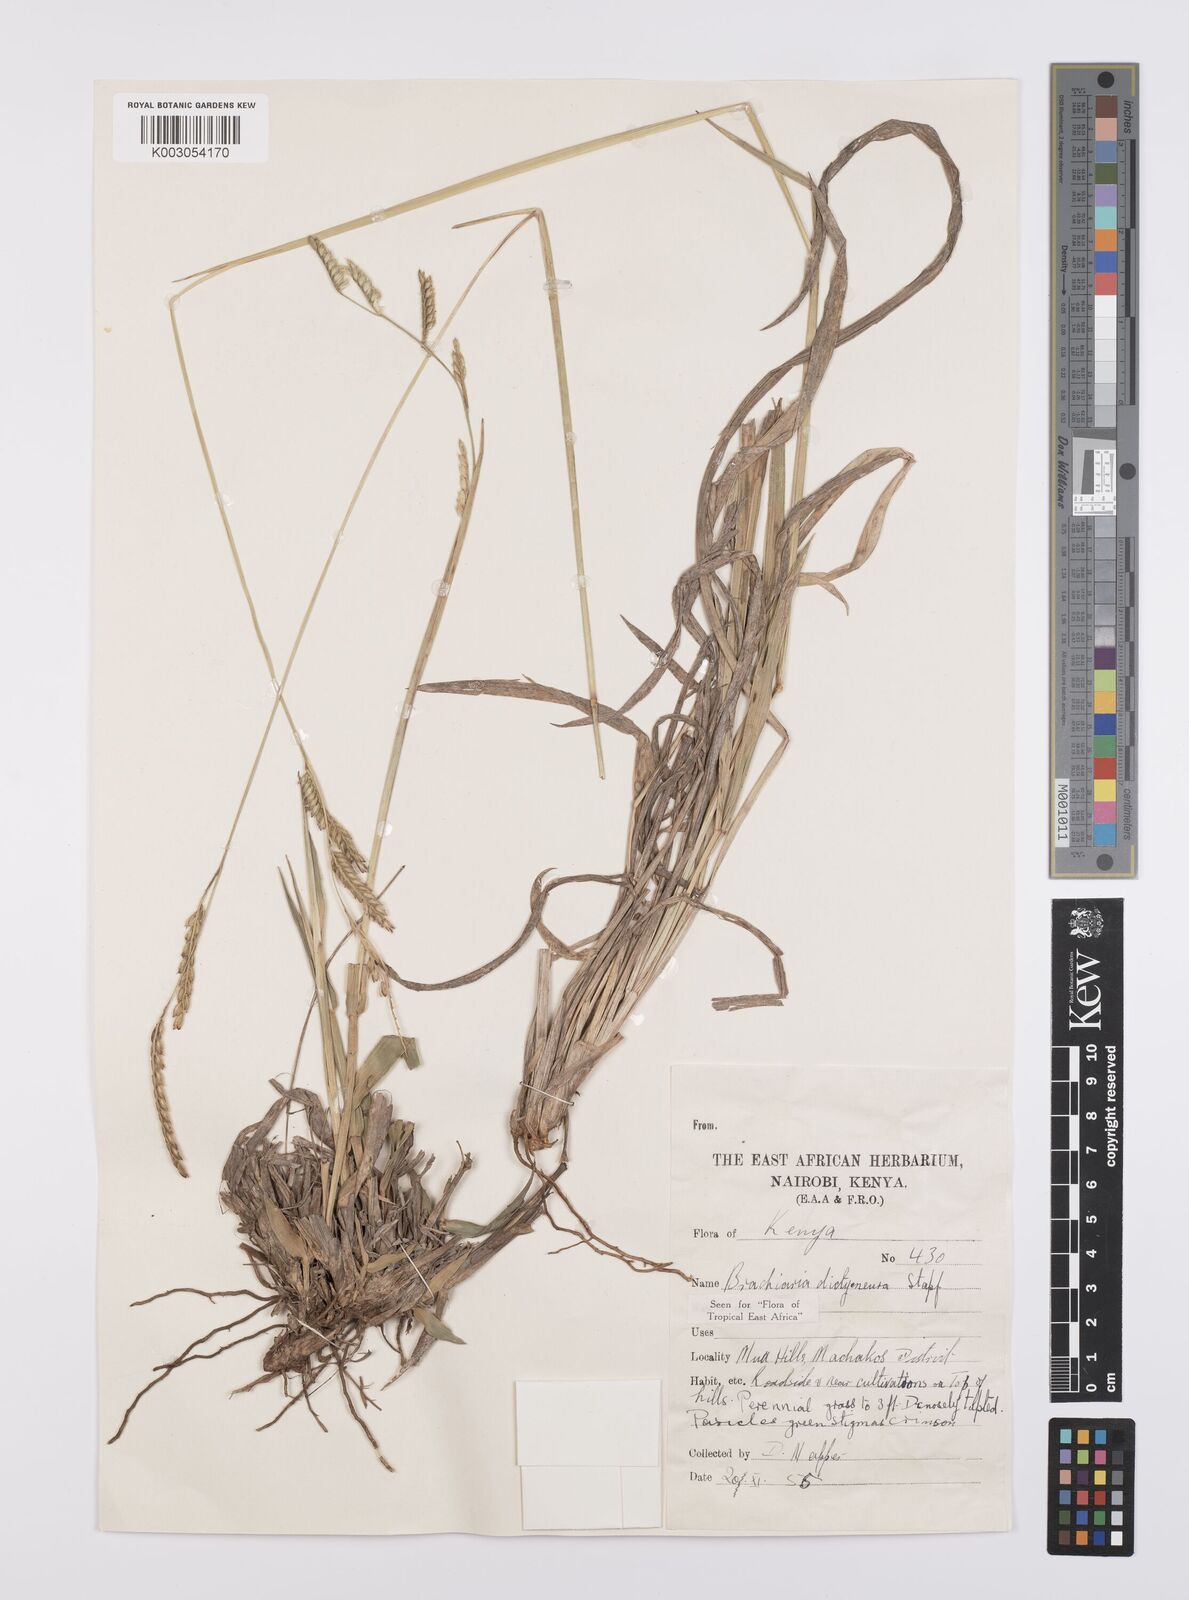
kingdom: Plantae
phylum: Tracheophyta
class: Liliopsida
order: Poales
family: Poaceae
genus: Urochloa
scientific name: Urochloa dictyoneura
